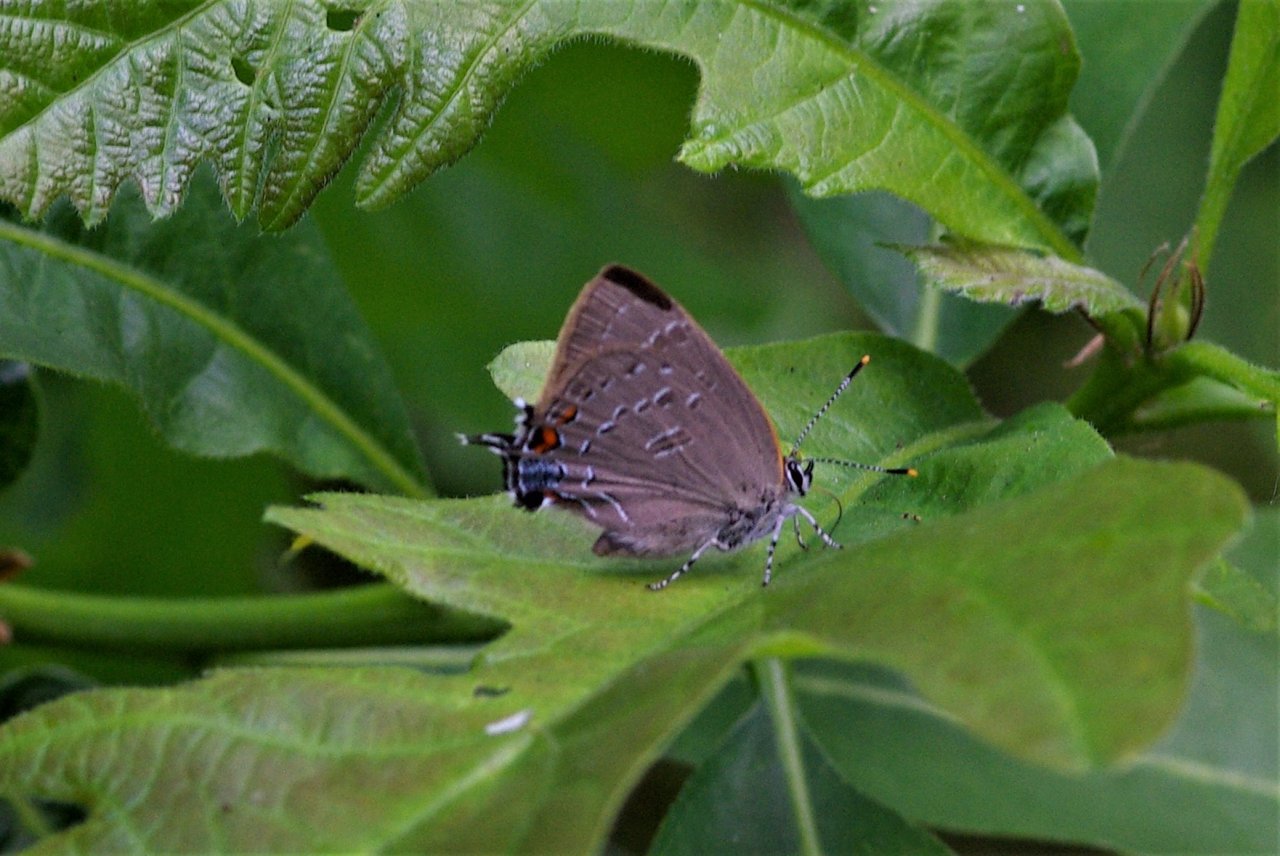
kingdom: Animalia
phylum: Arthropoda
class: Insecta
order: Lepidoptera
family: Lycaenidae
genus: Satyrium
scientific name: Satyrium calanus
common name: Banded Hairstreak
